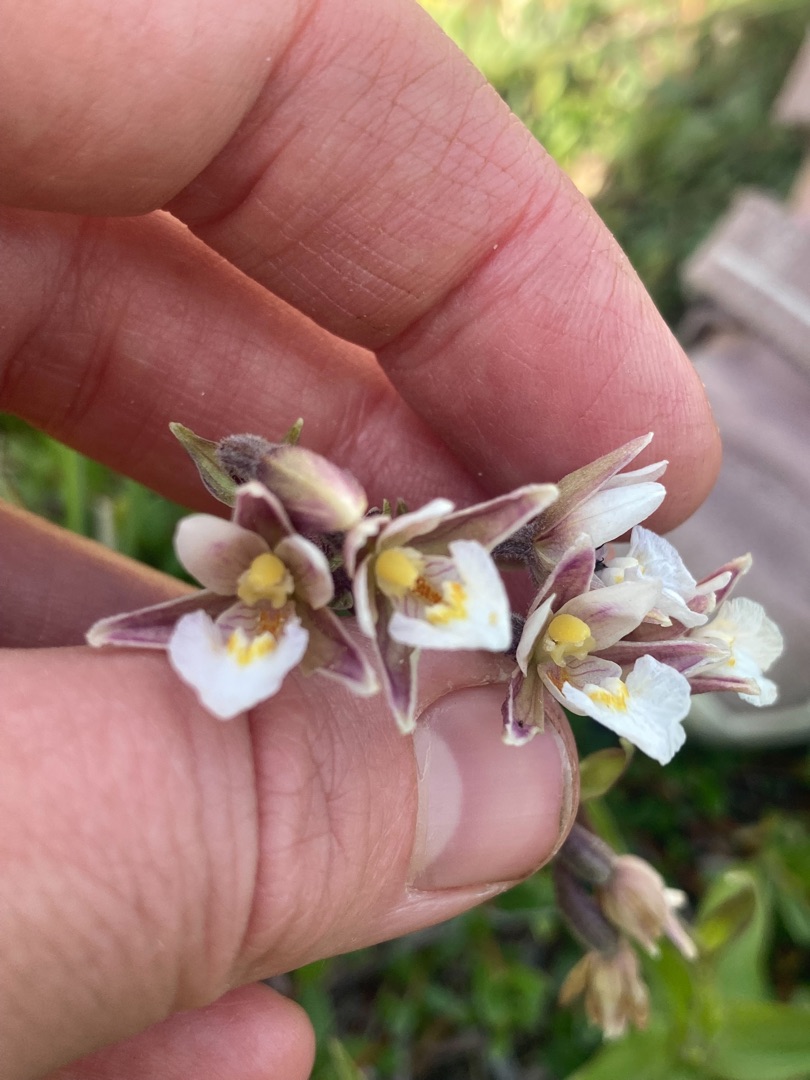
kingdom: Plantae
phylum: Tracheophyta
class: Liliopsida
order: Asparagales
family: Orchidaceae
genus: Epipactis
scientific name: Epipactis palustris
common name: Sump-hullæbe
